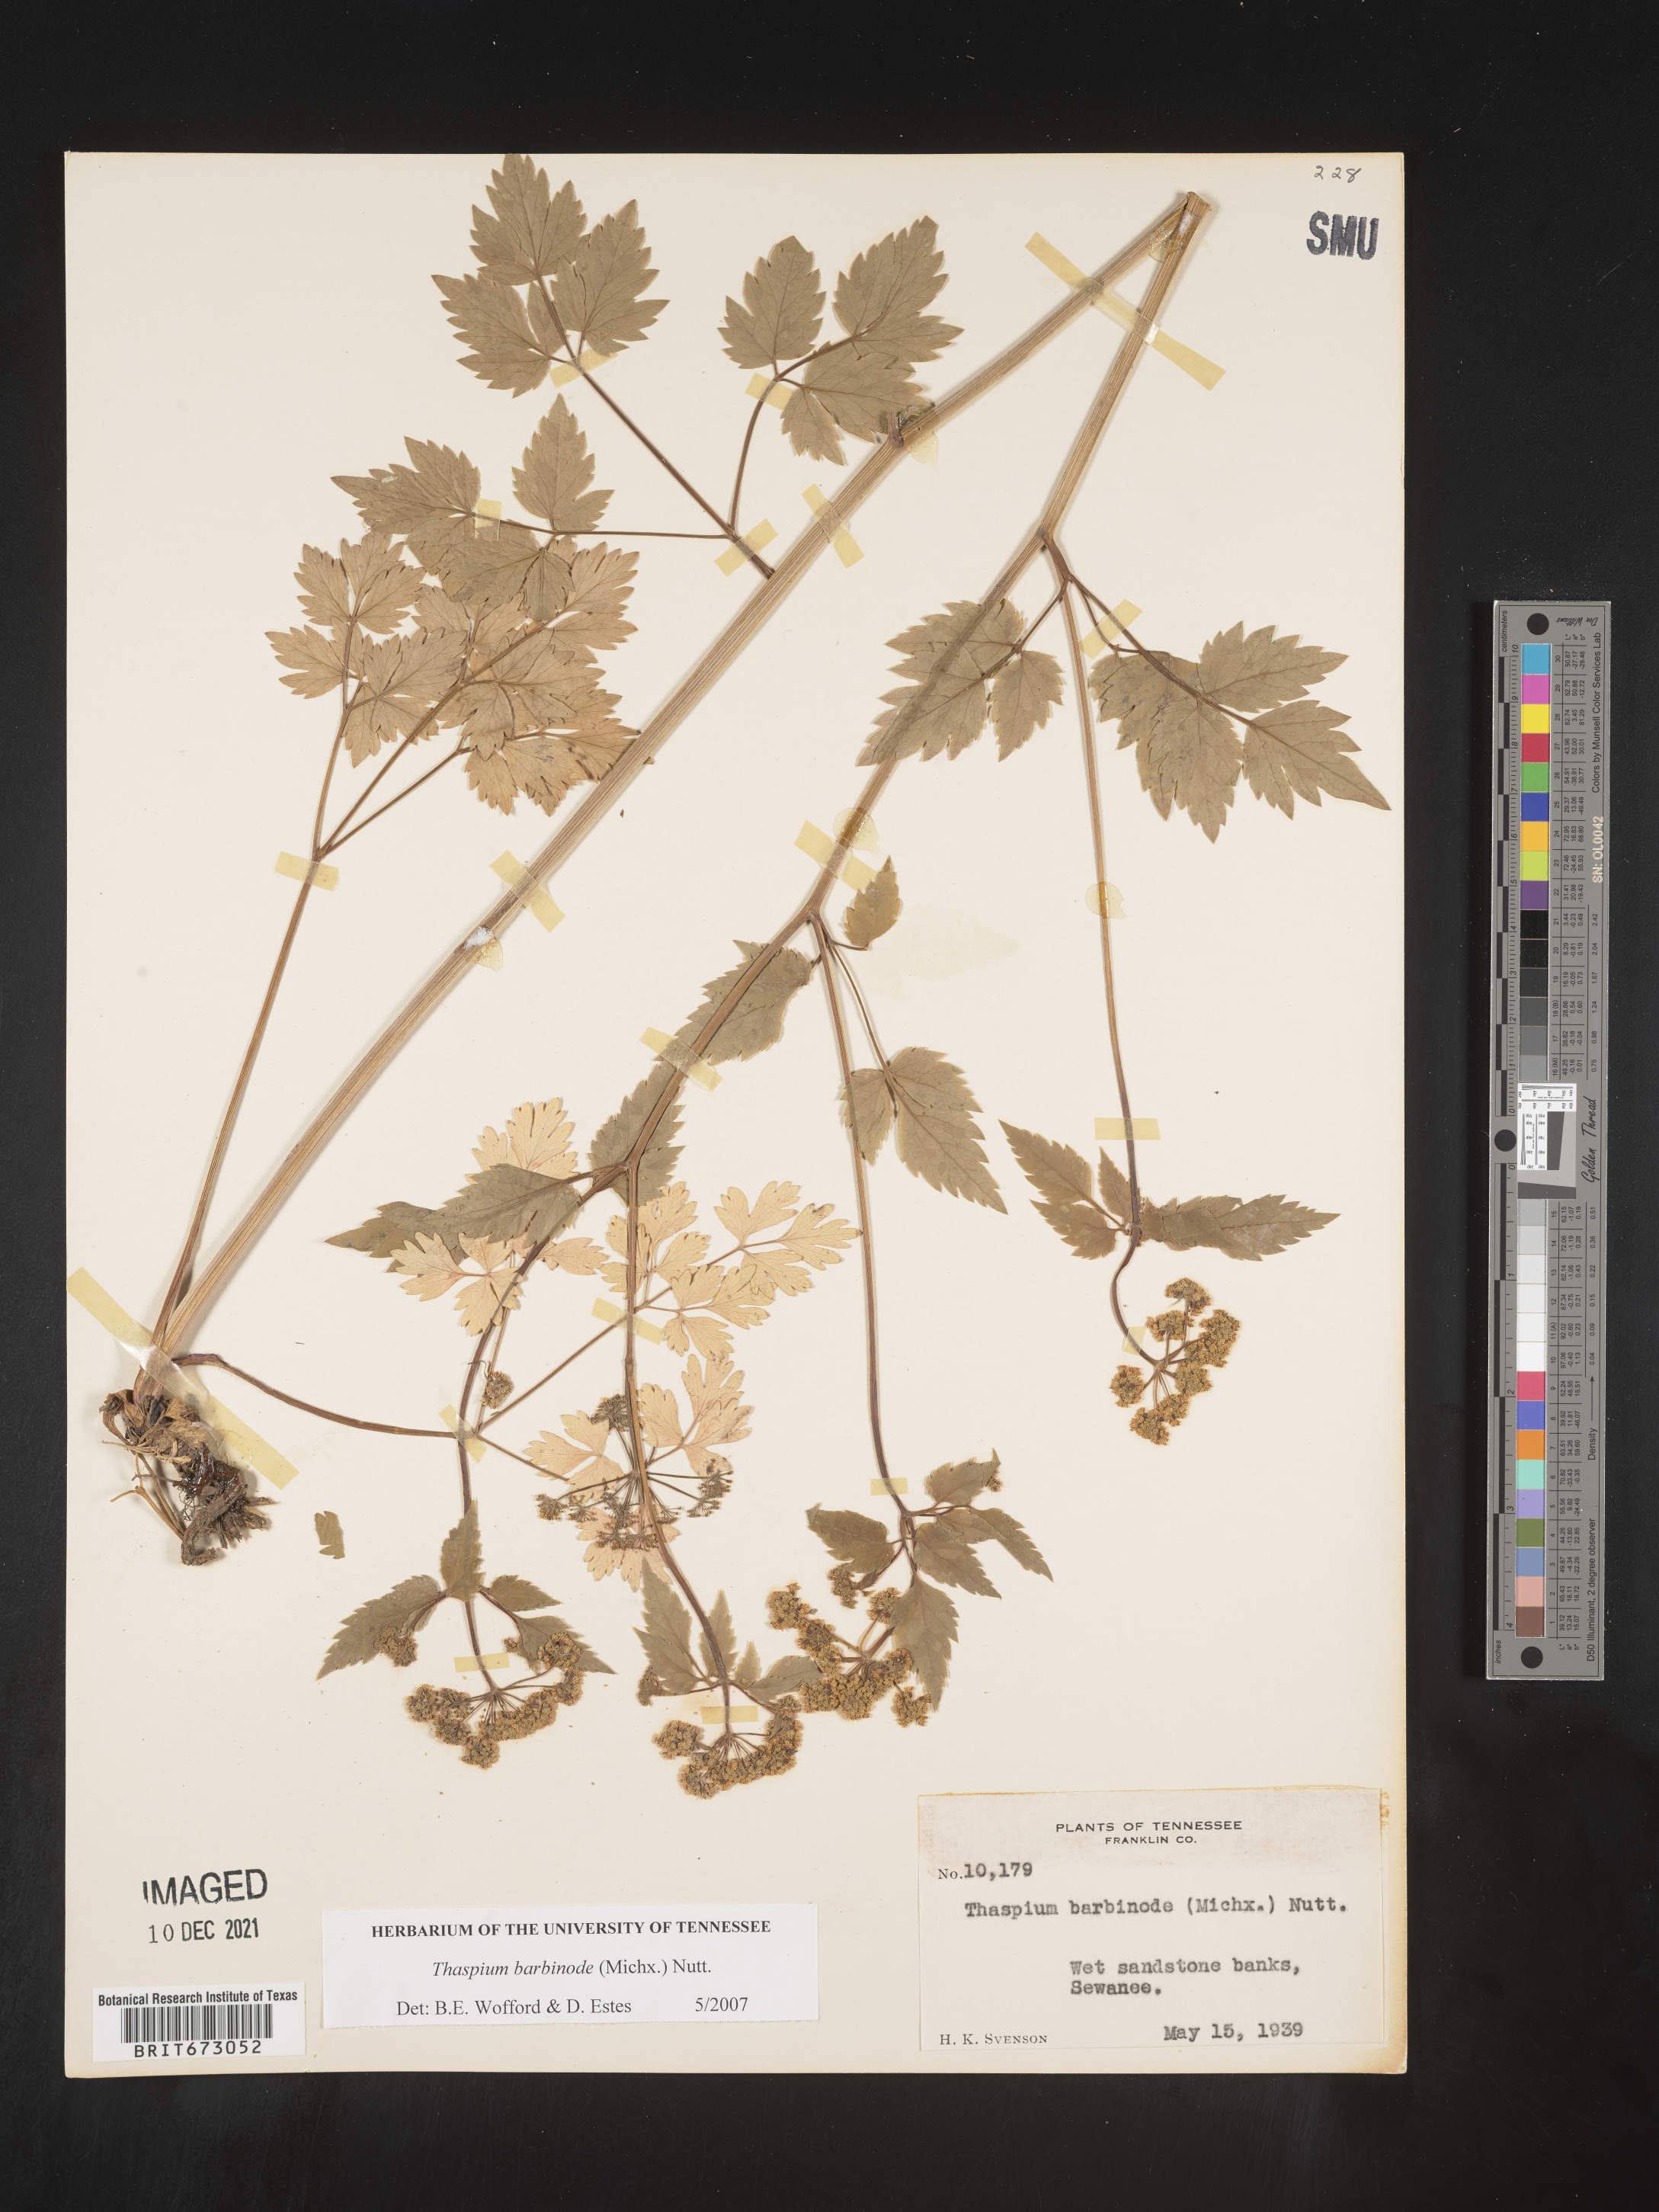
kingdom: Plantae
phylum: Tracheophyta
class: Magnoliopsida
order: Apiales
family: Apiaceae
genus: Thaspium
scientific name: Thaspium barbinode
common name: Bearded meadow-parsnip
